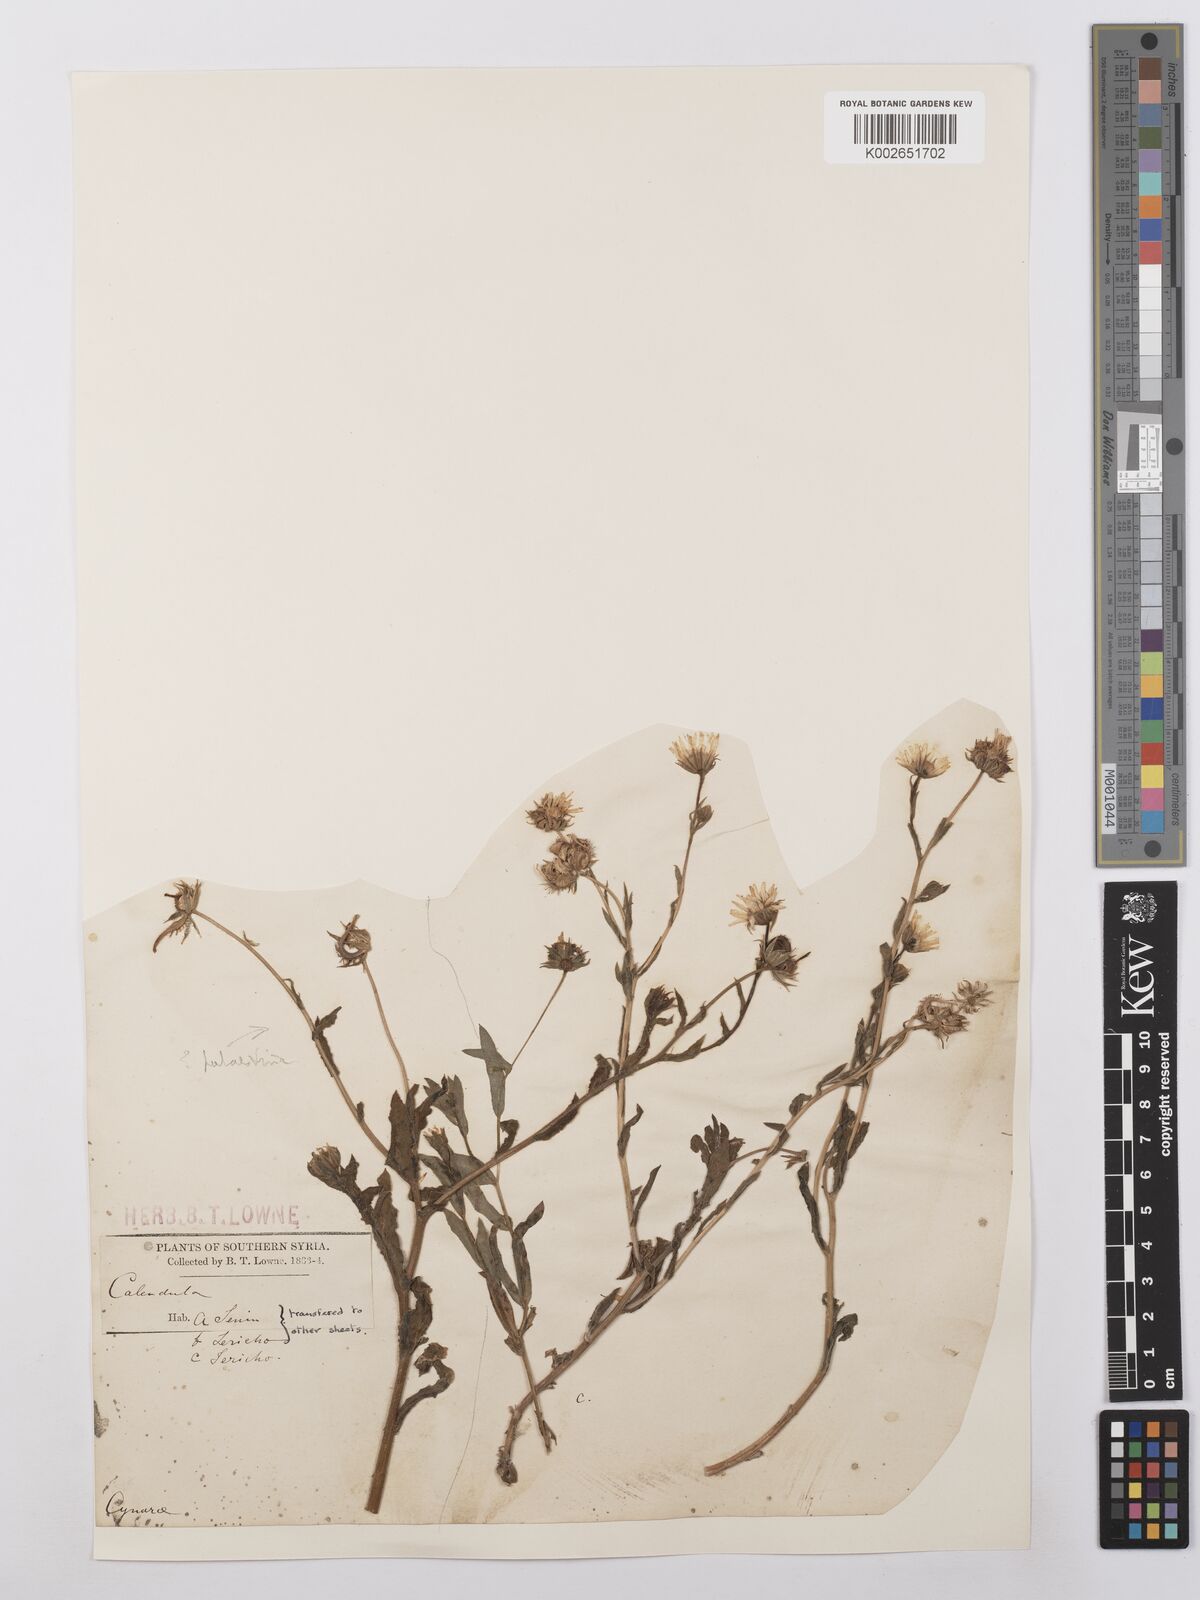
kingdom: Plantae
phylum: Tracheophyta
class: Magnoliopsida
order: Asterales
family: Asteraceae
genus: Calendula
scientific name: Calendula palaestina
